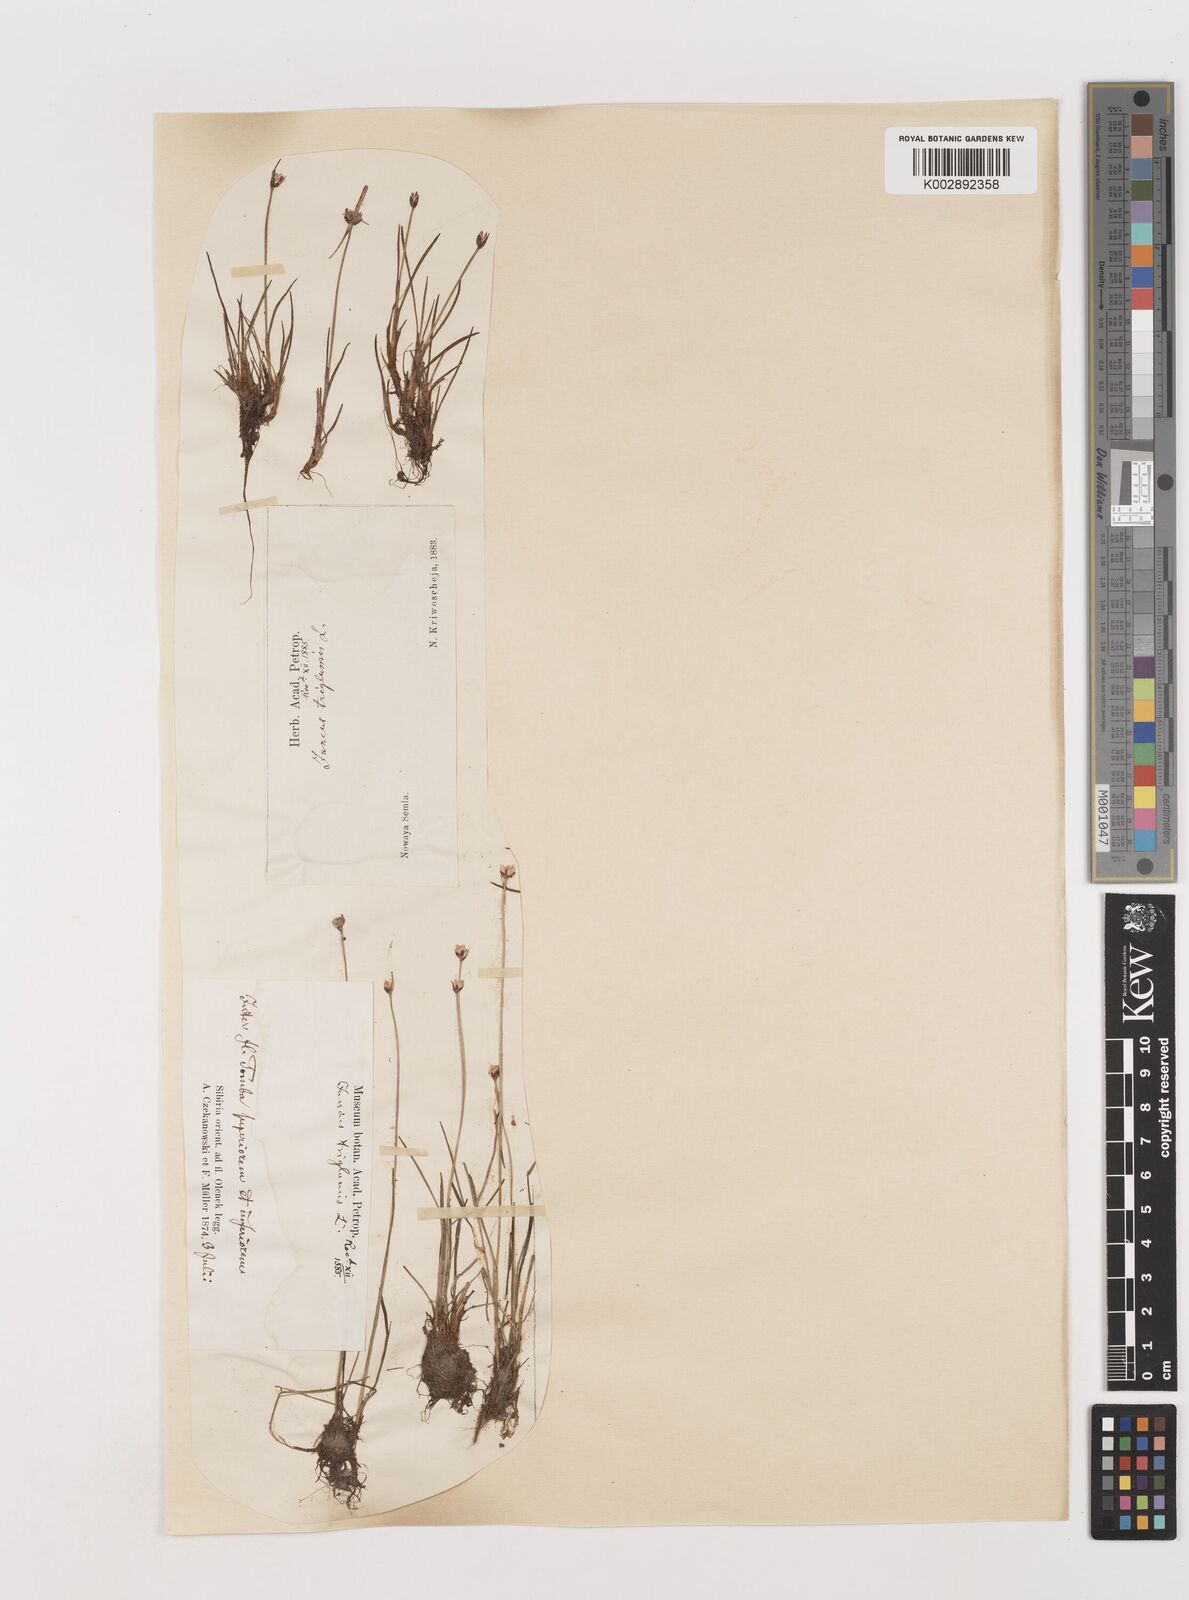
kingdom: Plantae
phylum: Tracheophyta
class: Liliopsida
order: Poales
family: Juncaceae
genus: Juncus
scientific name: Juncus triglumis
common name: Three-flowered rush
